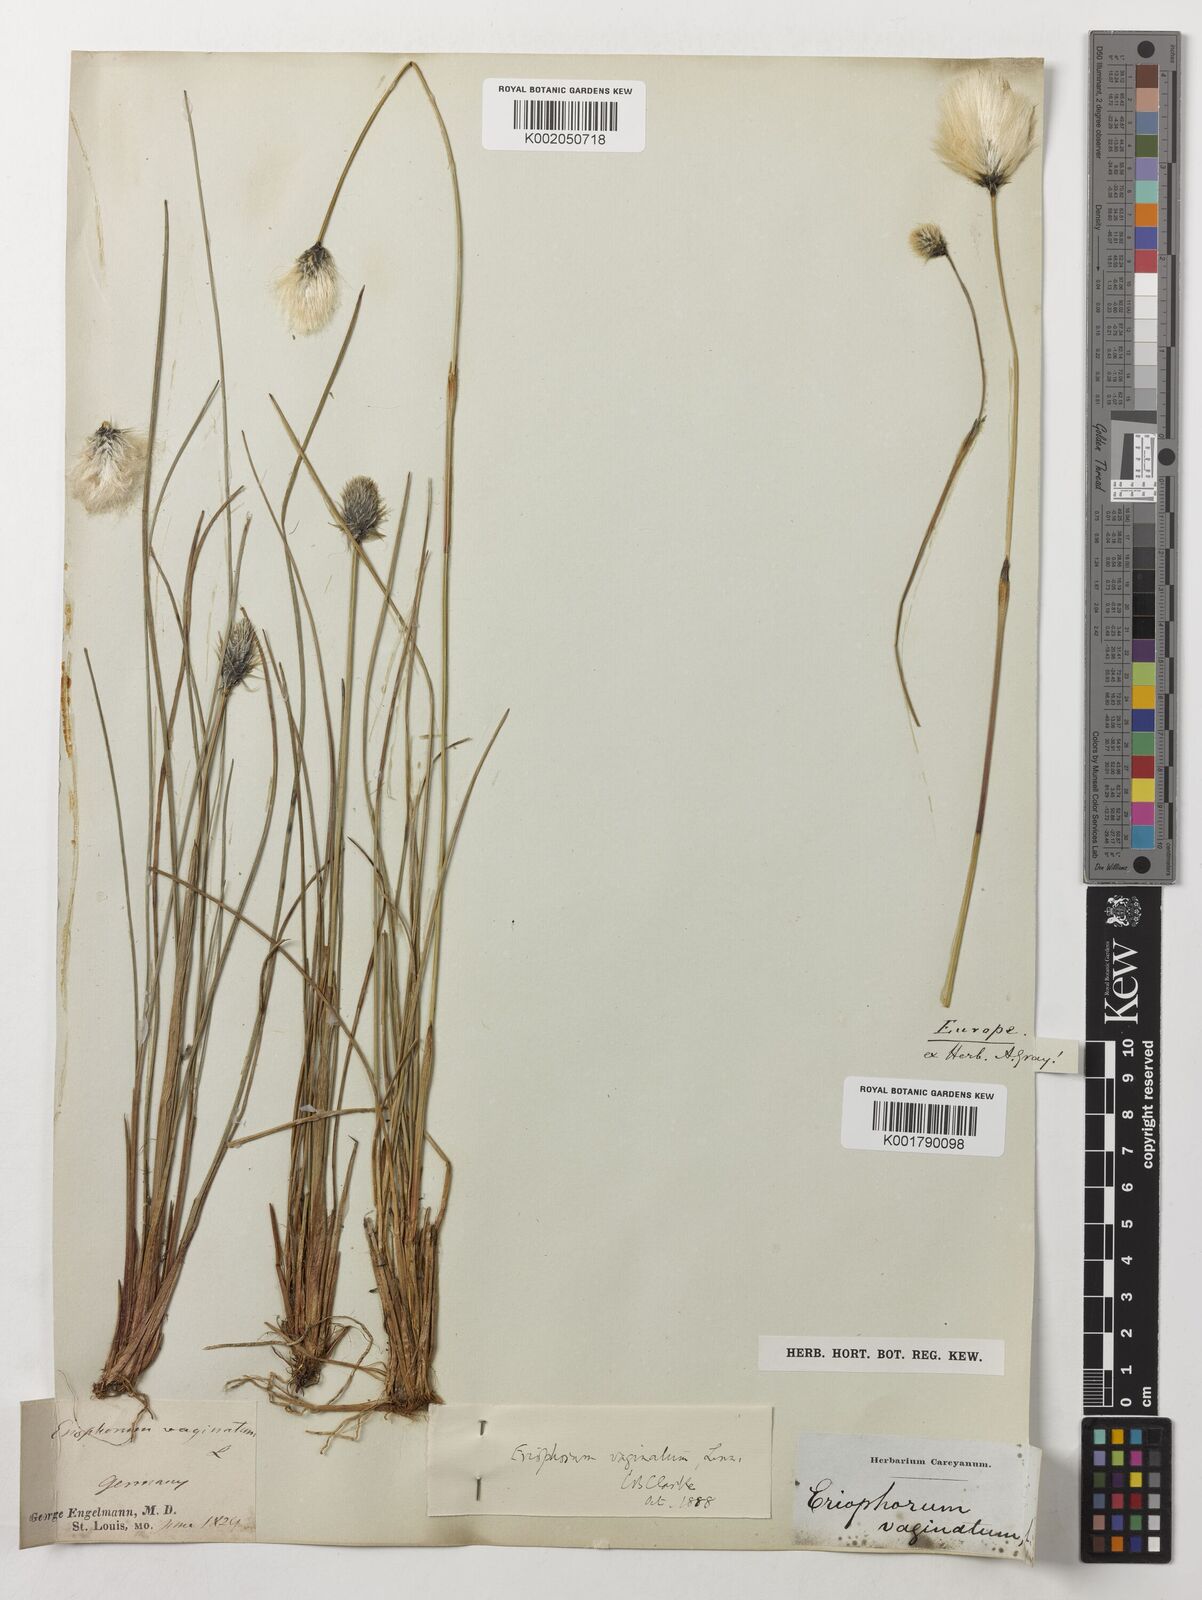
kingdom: Plantae
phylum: Tracheophyta
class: Liliopsida
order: Poales
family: Cyperaceae
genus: Eriophorum
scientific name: Eriophorum vaginatum
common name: Hare's-tail cottongrass
